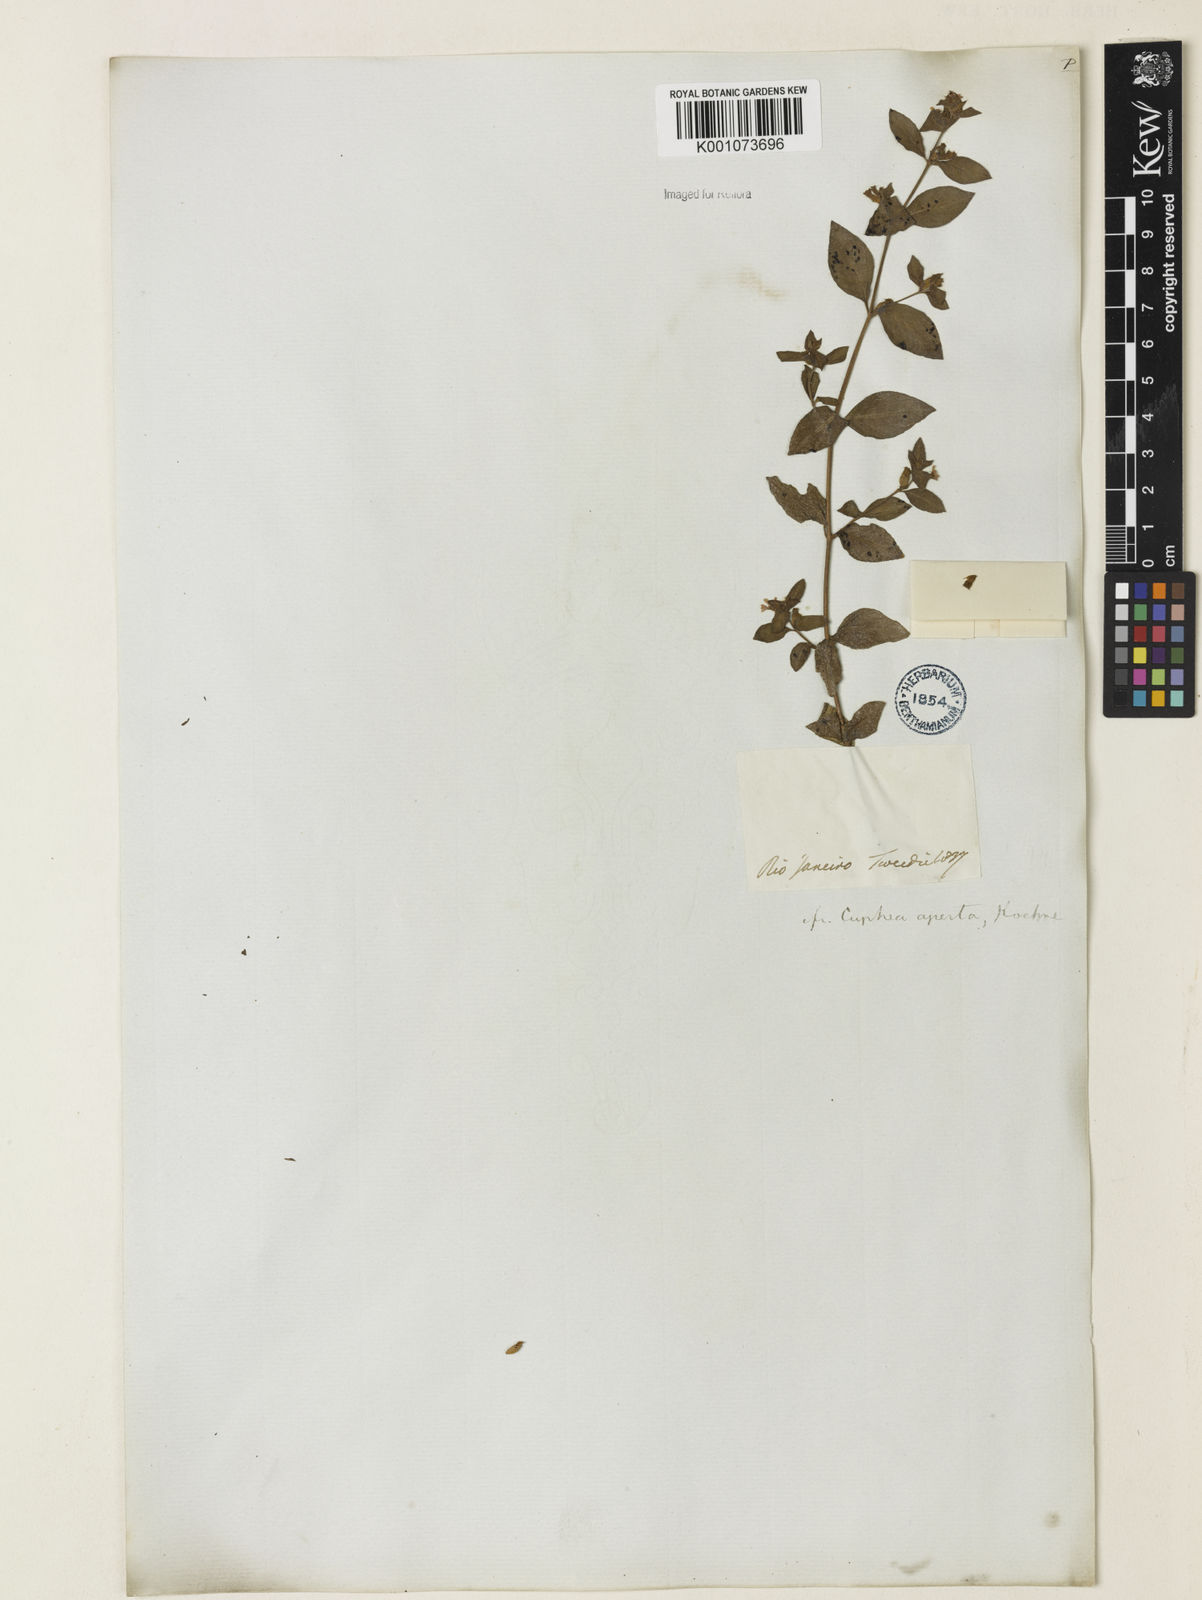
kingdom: Plantae
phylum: Tracheophyta
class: Magnoliopsida
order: Myrtales
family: Lythraceae
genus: Cuphea
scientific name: Cuphea aperta
